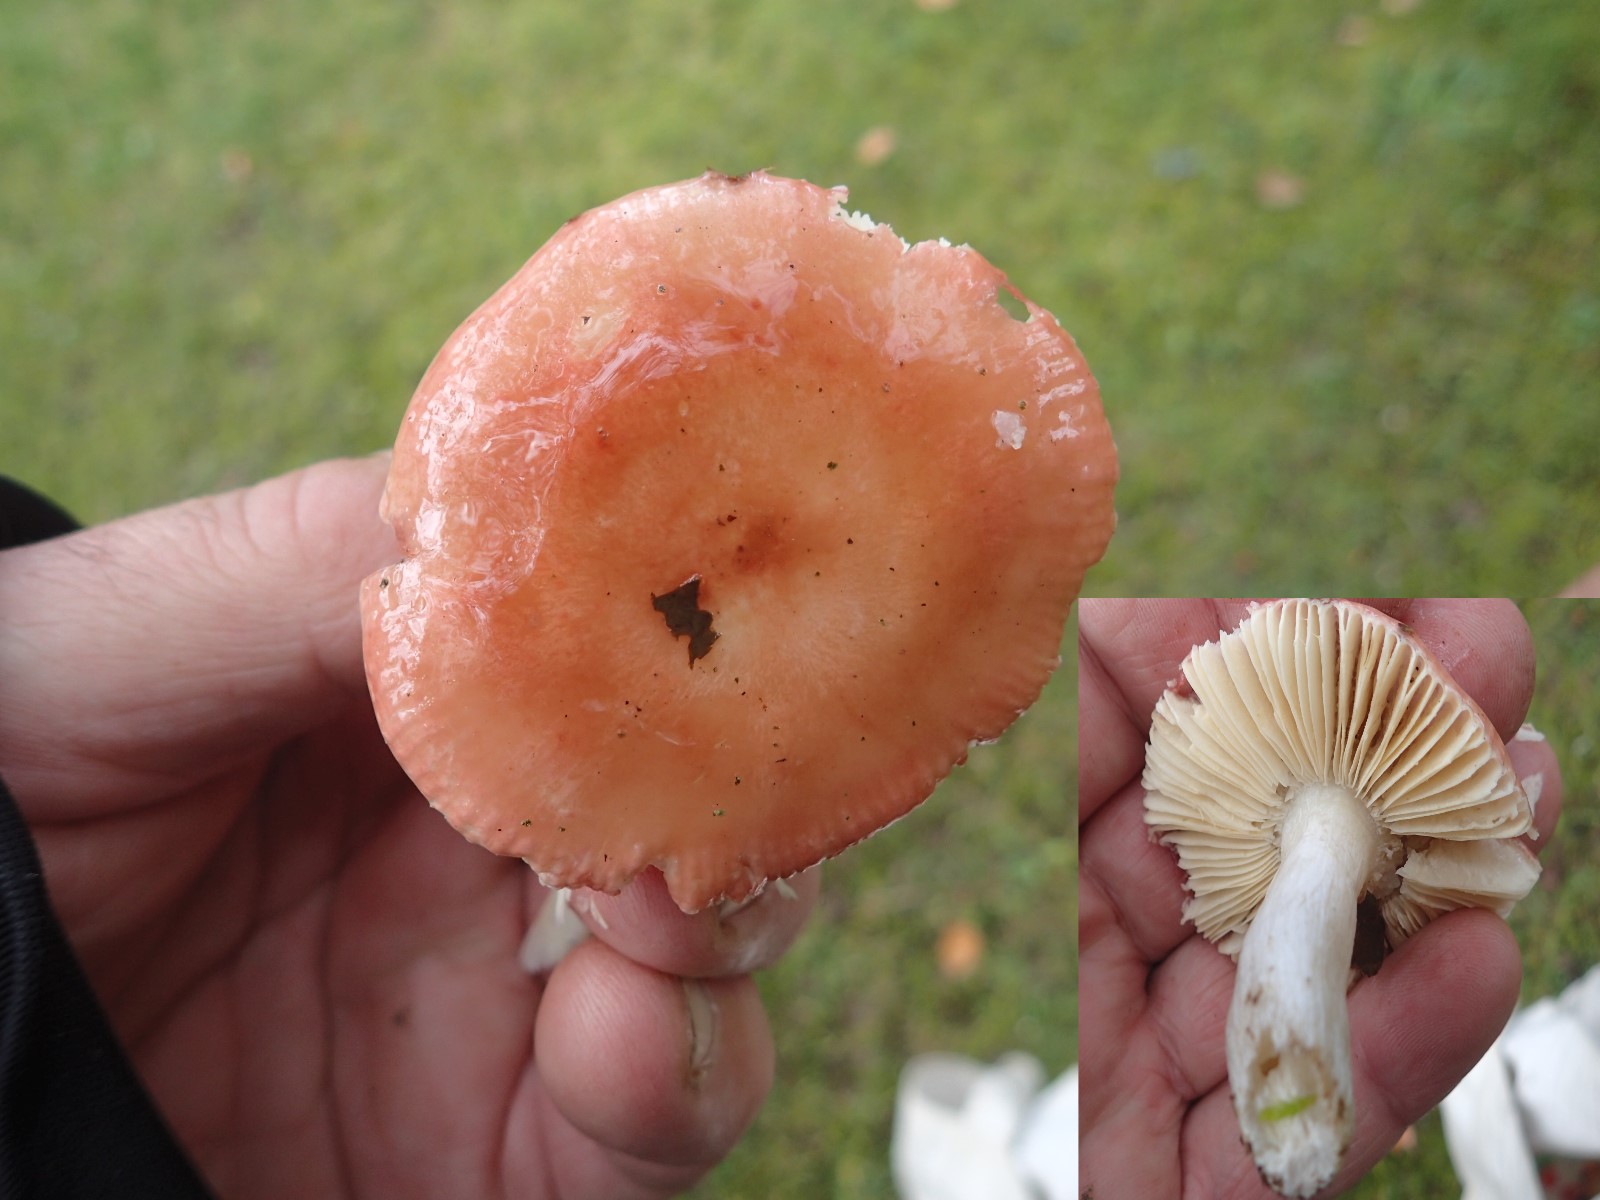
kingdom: Fungi
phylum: Basidiomycota
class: Agaricomycetes
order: Russulales
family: Russulaceae
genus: Russula
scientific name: Russula
